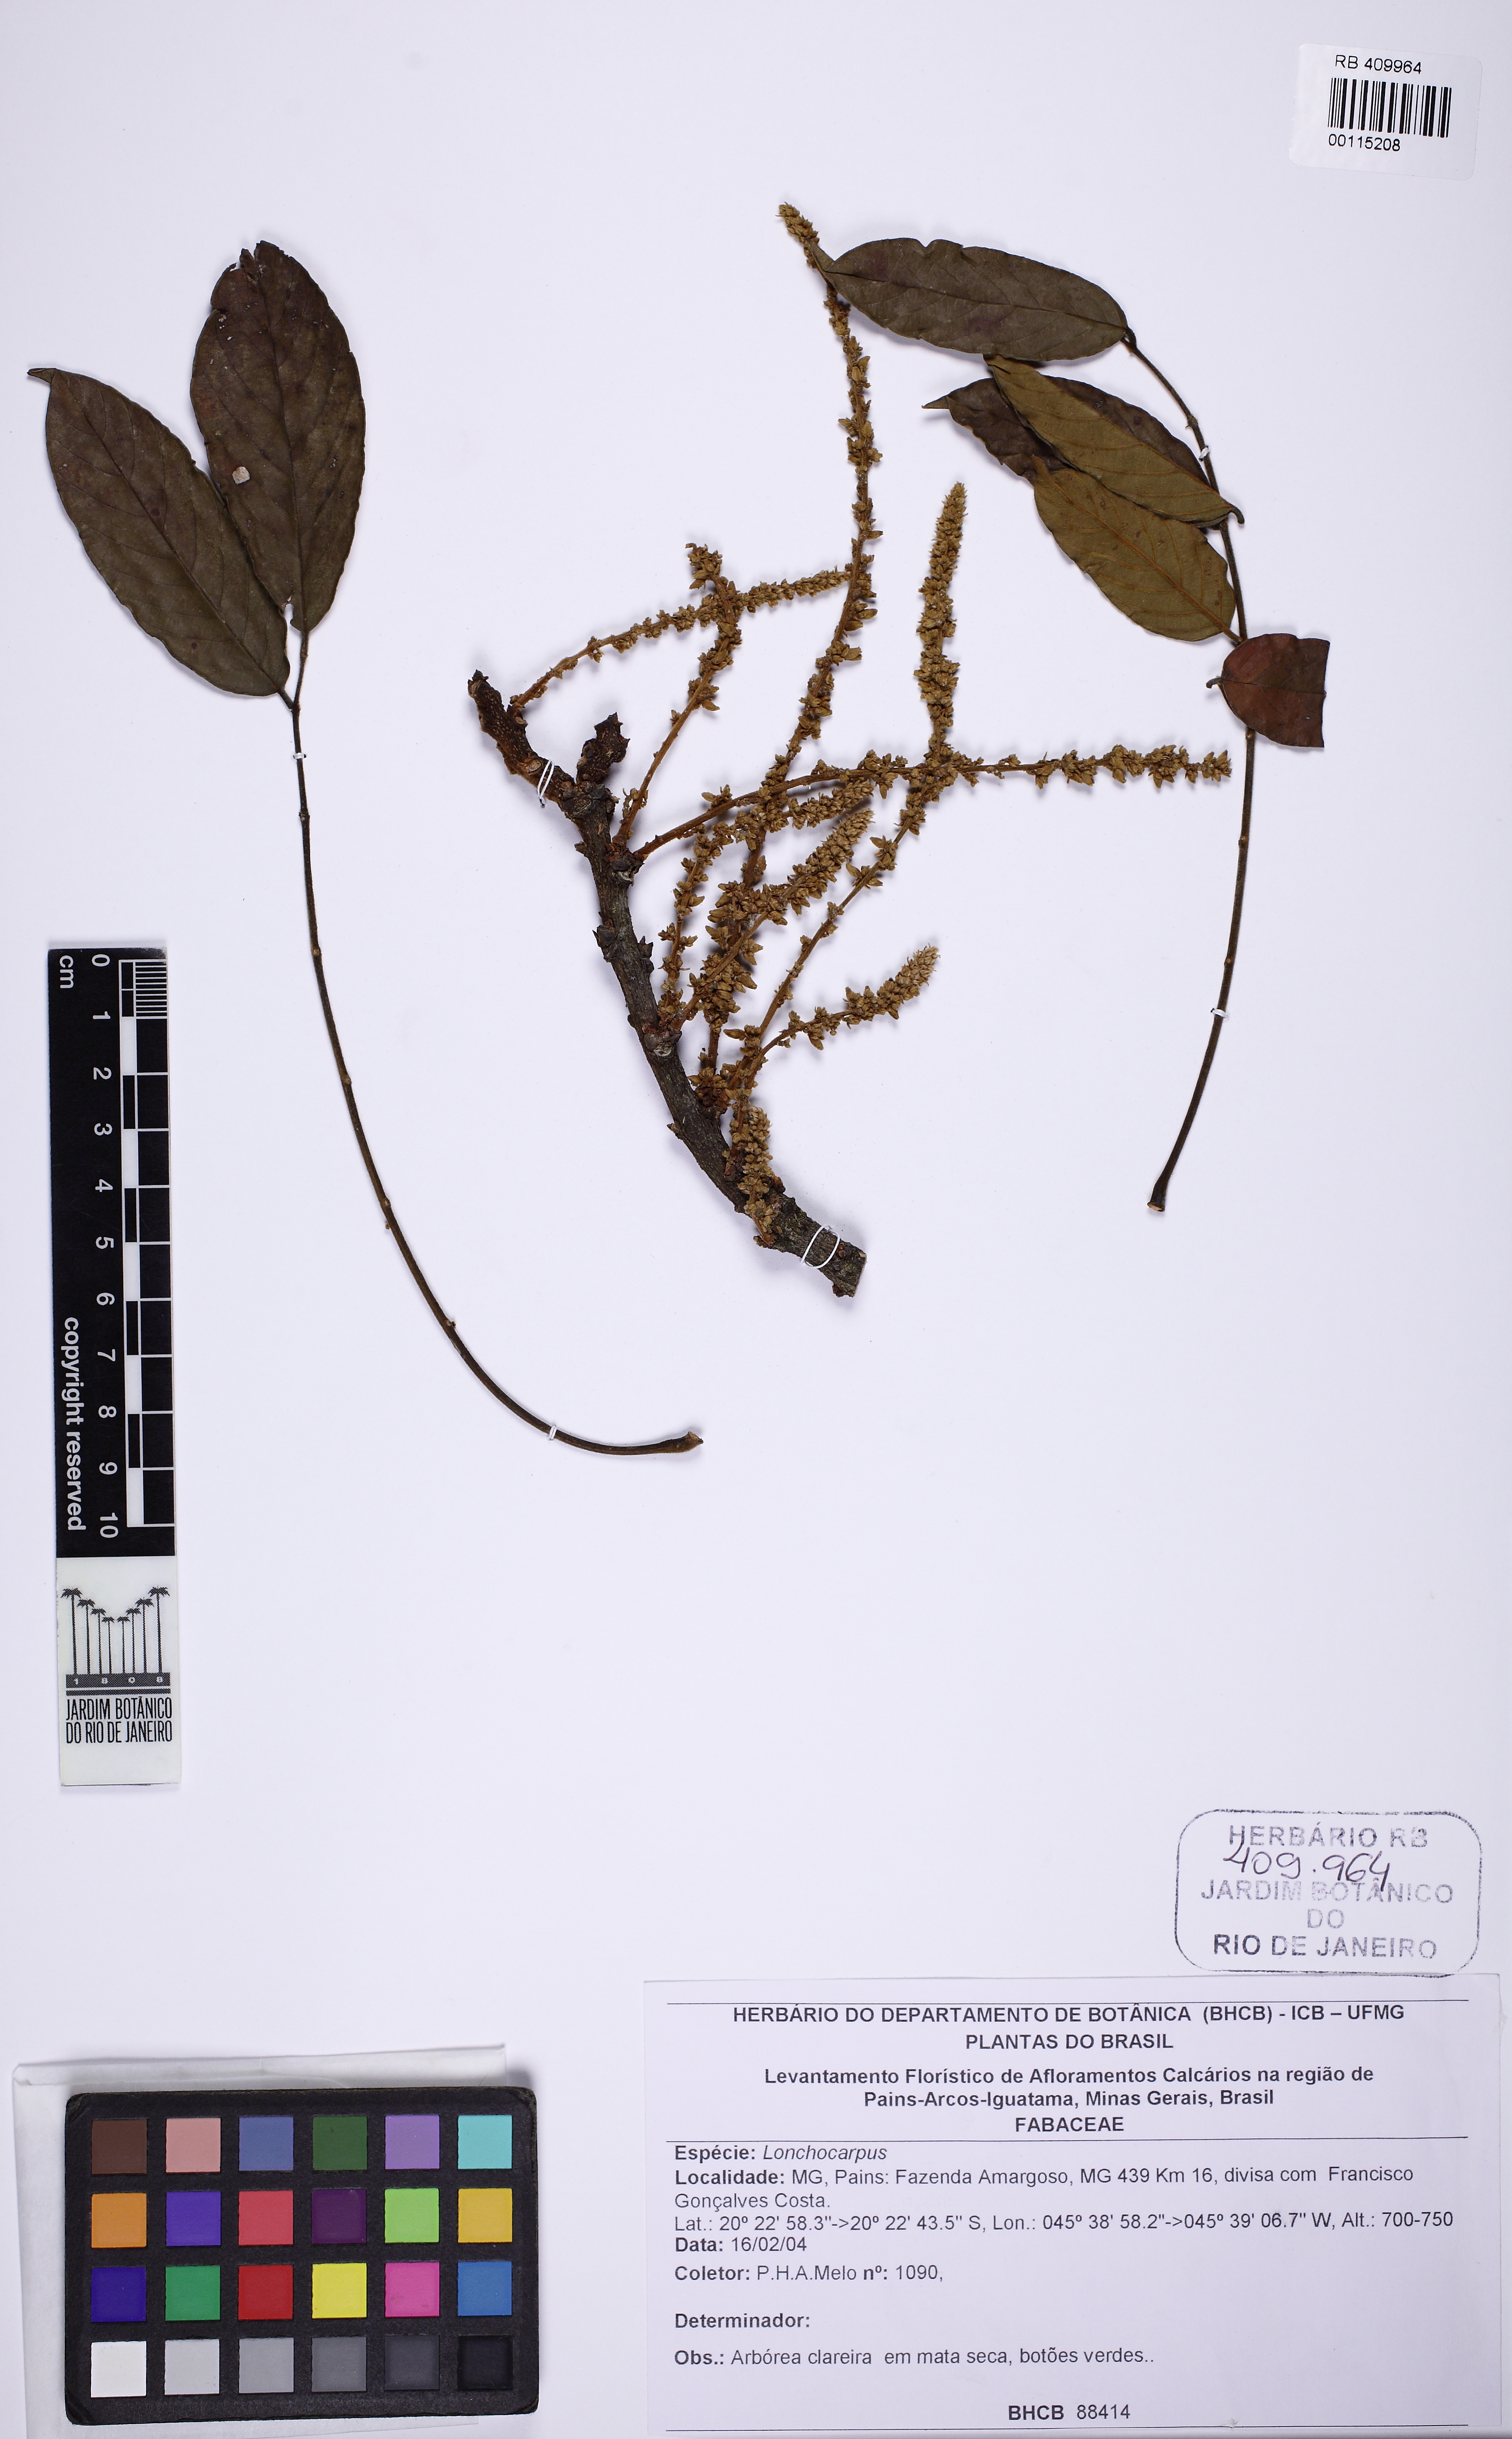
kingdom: Plantae
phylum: Tracheophyta
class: Magnoliopsida
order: Fabales
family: Fabaceae
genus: Lonchocarpus
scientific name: Lonchocarpus
